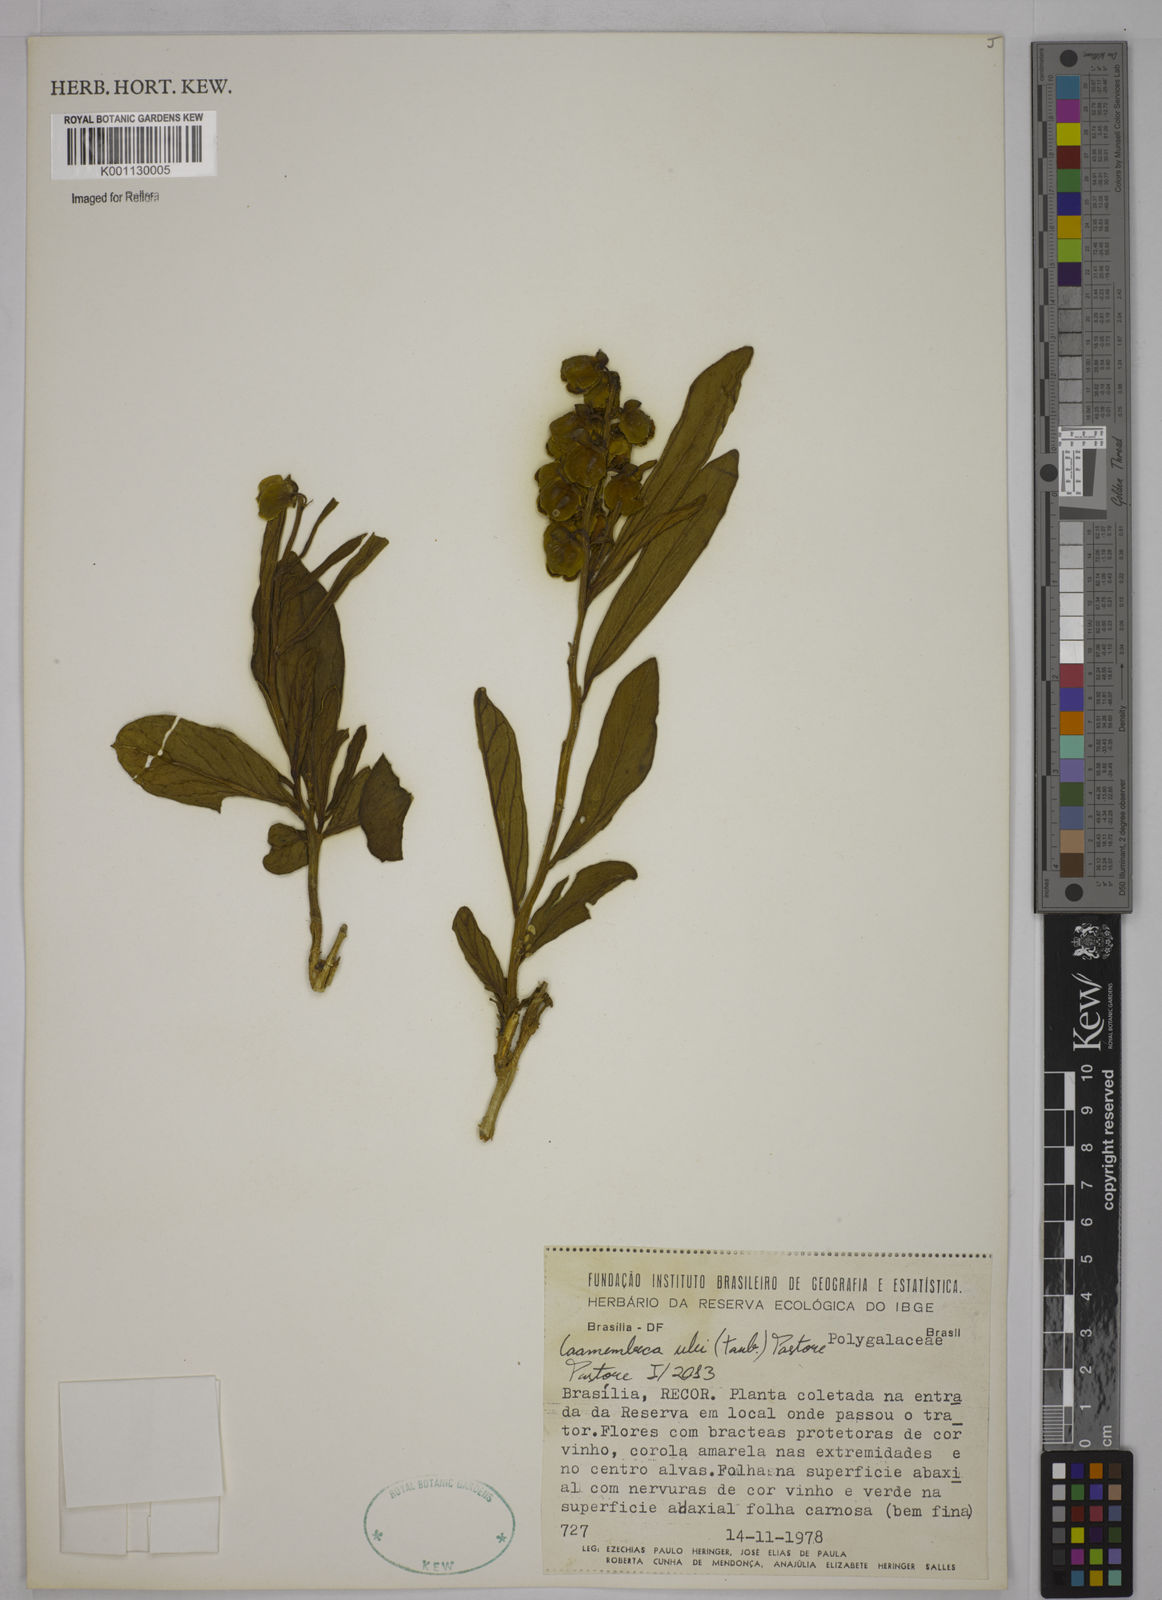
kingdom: Plantae
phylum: Tracheophyta
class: Magnoliopsida
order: Fabales
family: Polygalaceae
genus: Caamembeca
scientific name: Caamembeca ulei
